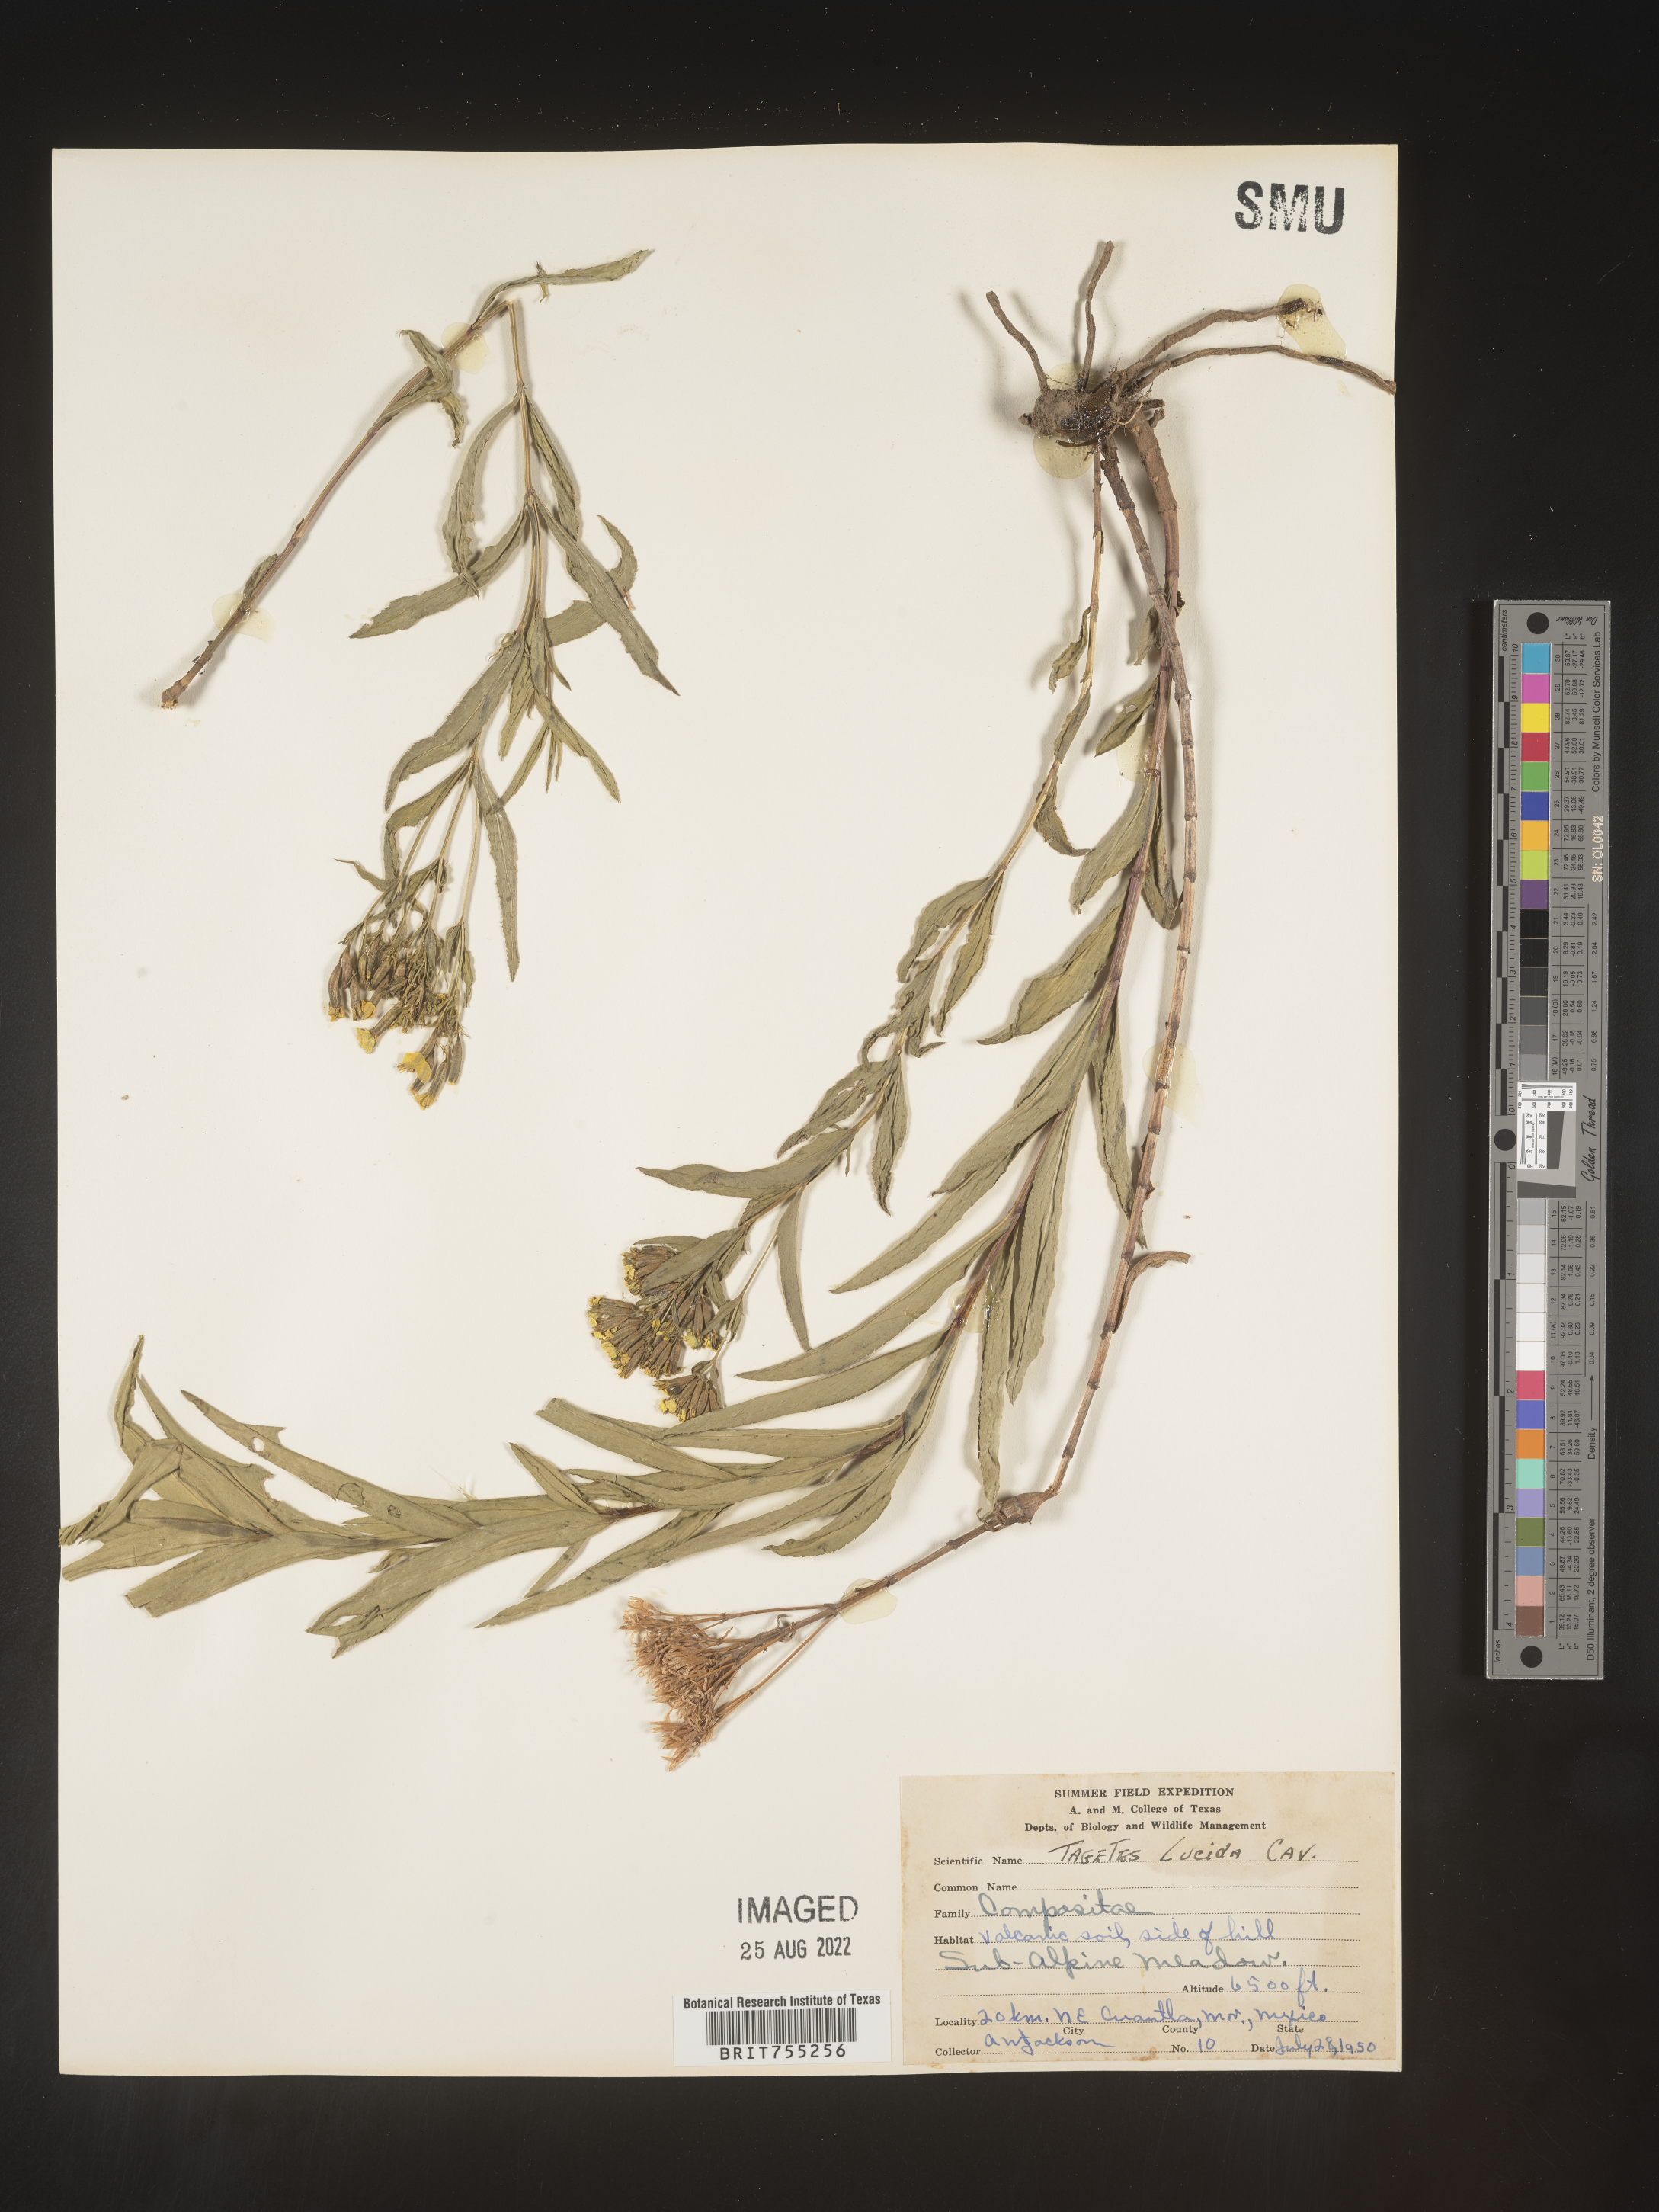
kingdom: Plantae
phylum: Tracheophyta
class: Magnoliopsida
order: Asterales
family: Asteraceae
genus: Tagetes
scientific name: Tagetes lucida
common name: Sweetscented marigold
